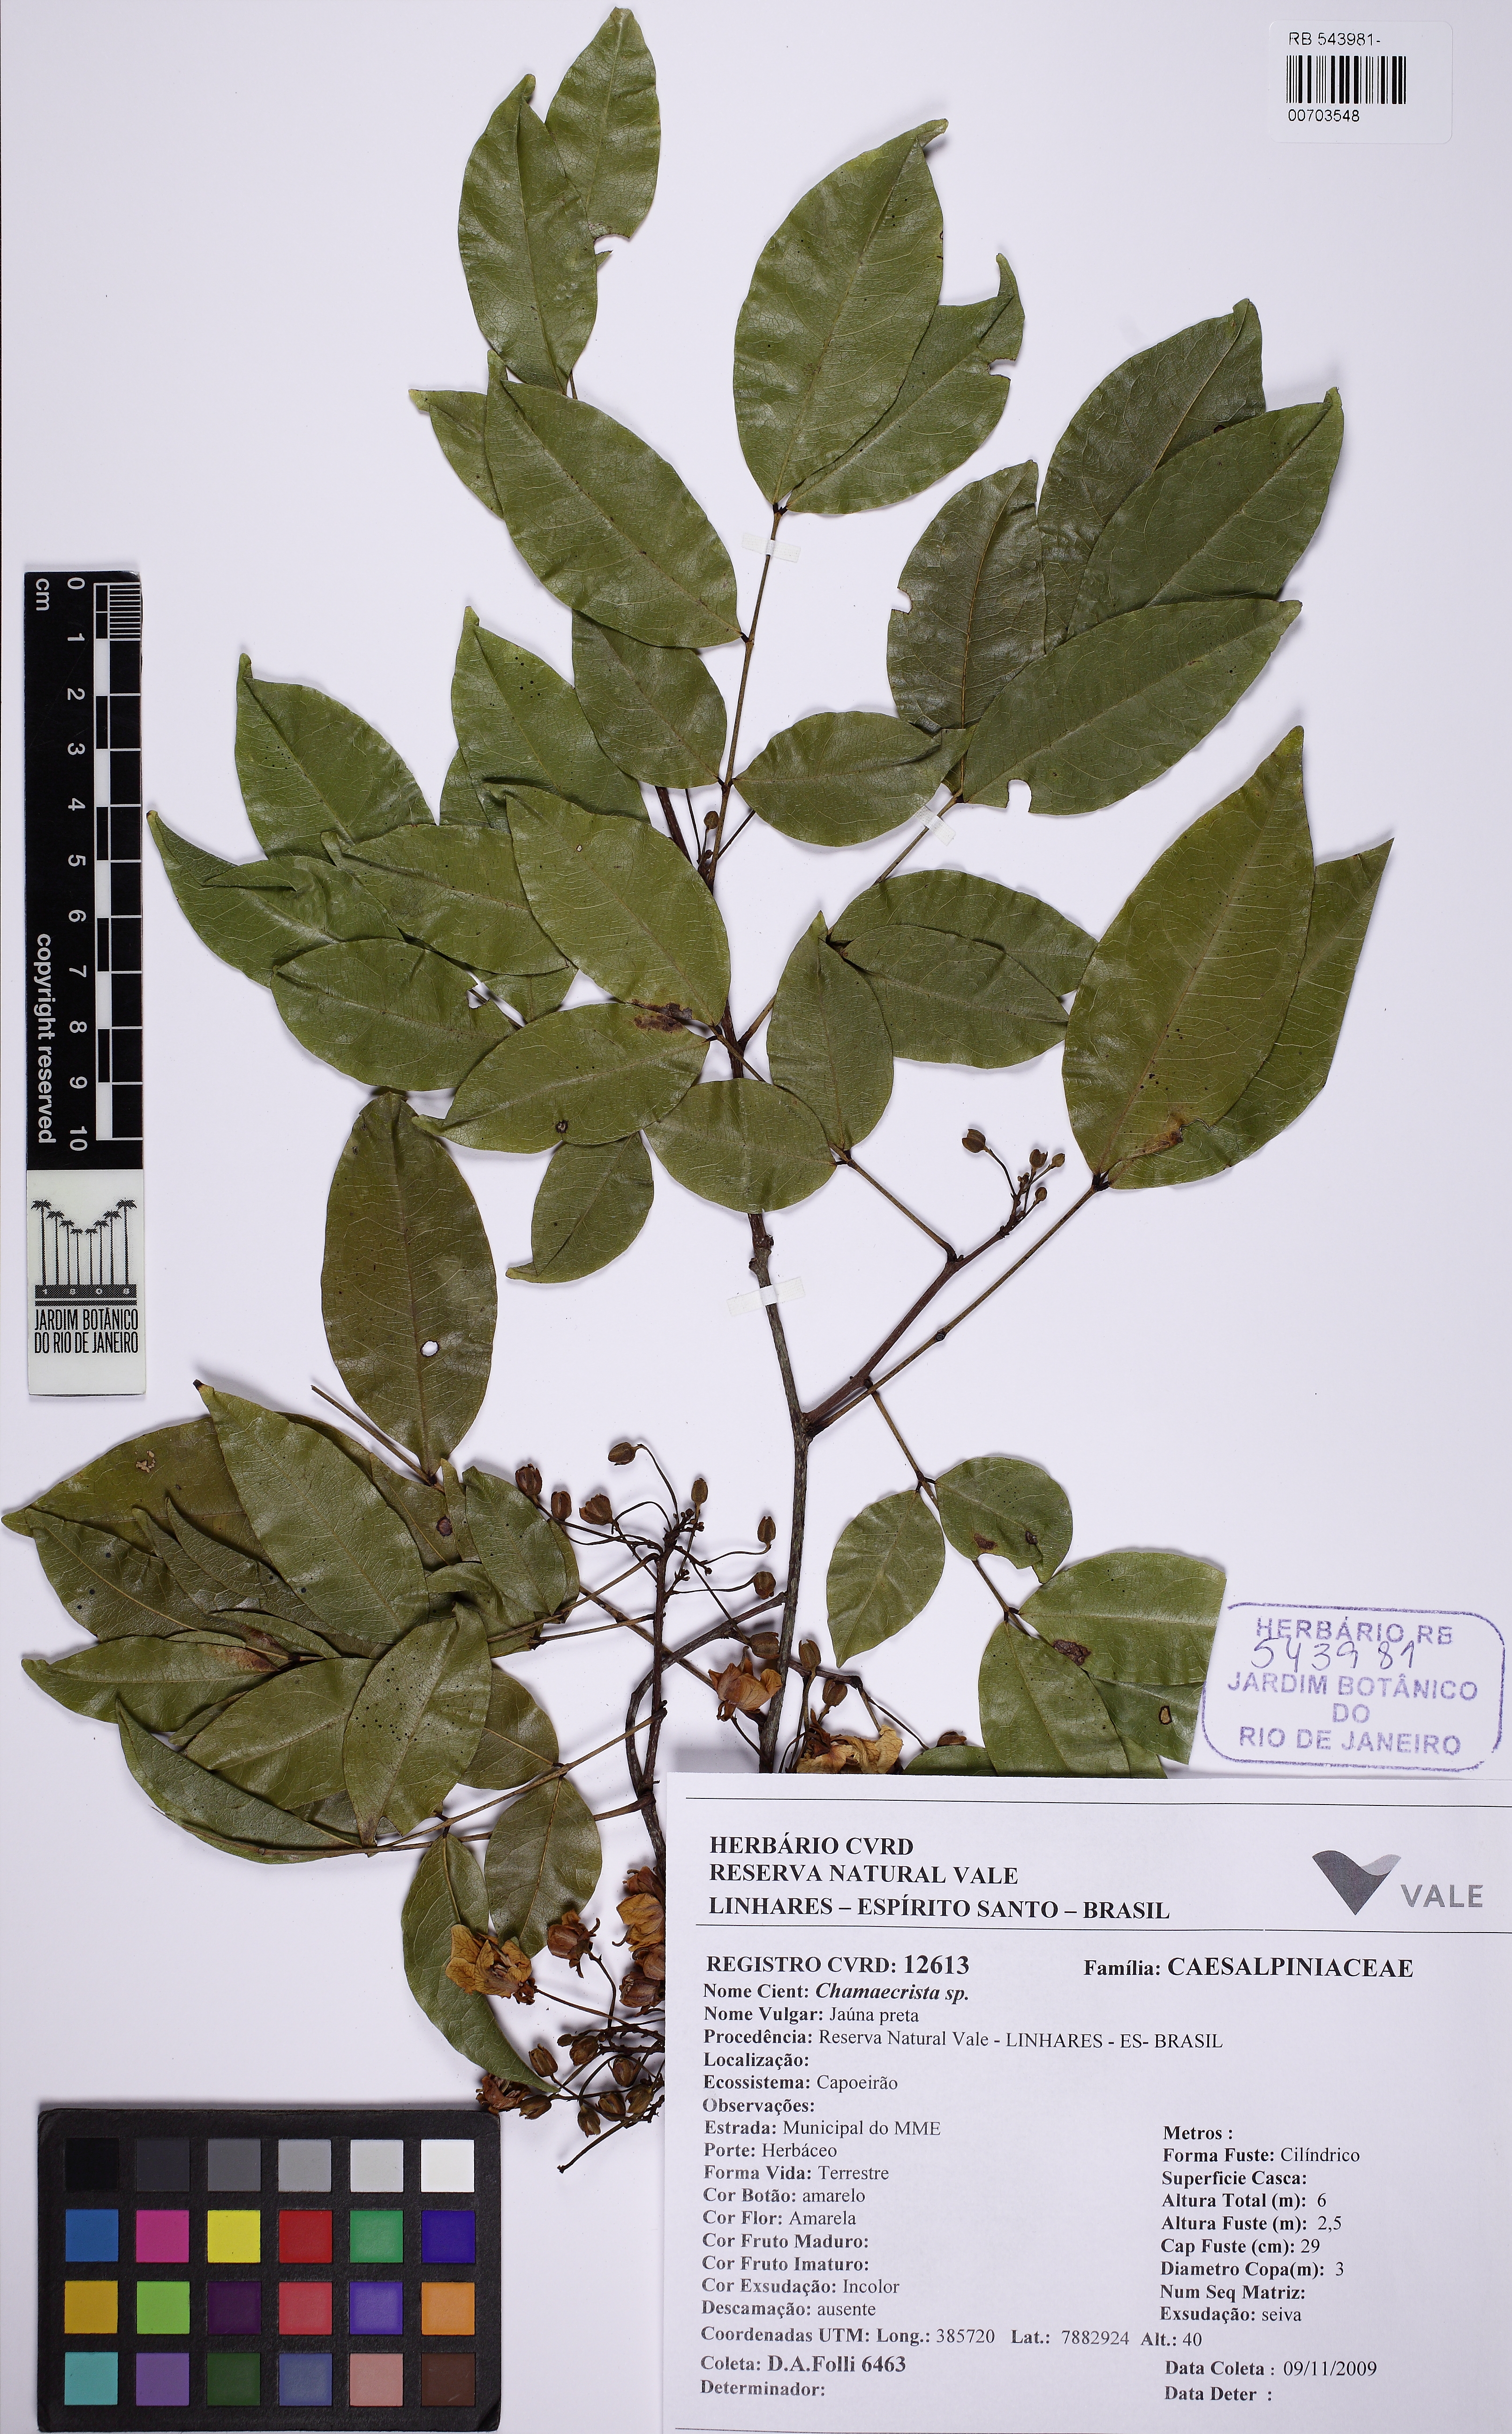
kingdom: Plantae
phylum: Tracheophyta
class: Magnoliopsida
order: Fabales
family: Fabaceae
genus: Chamaecrista
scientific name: Chamaecrista ensiformis
